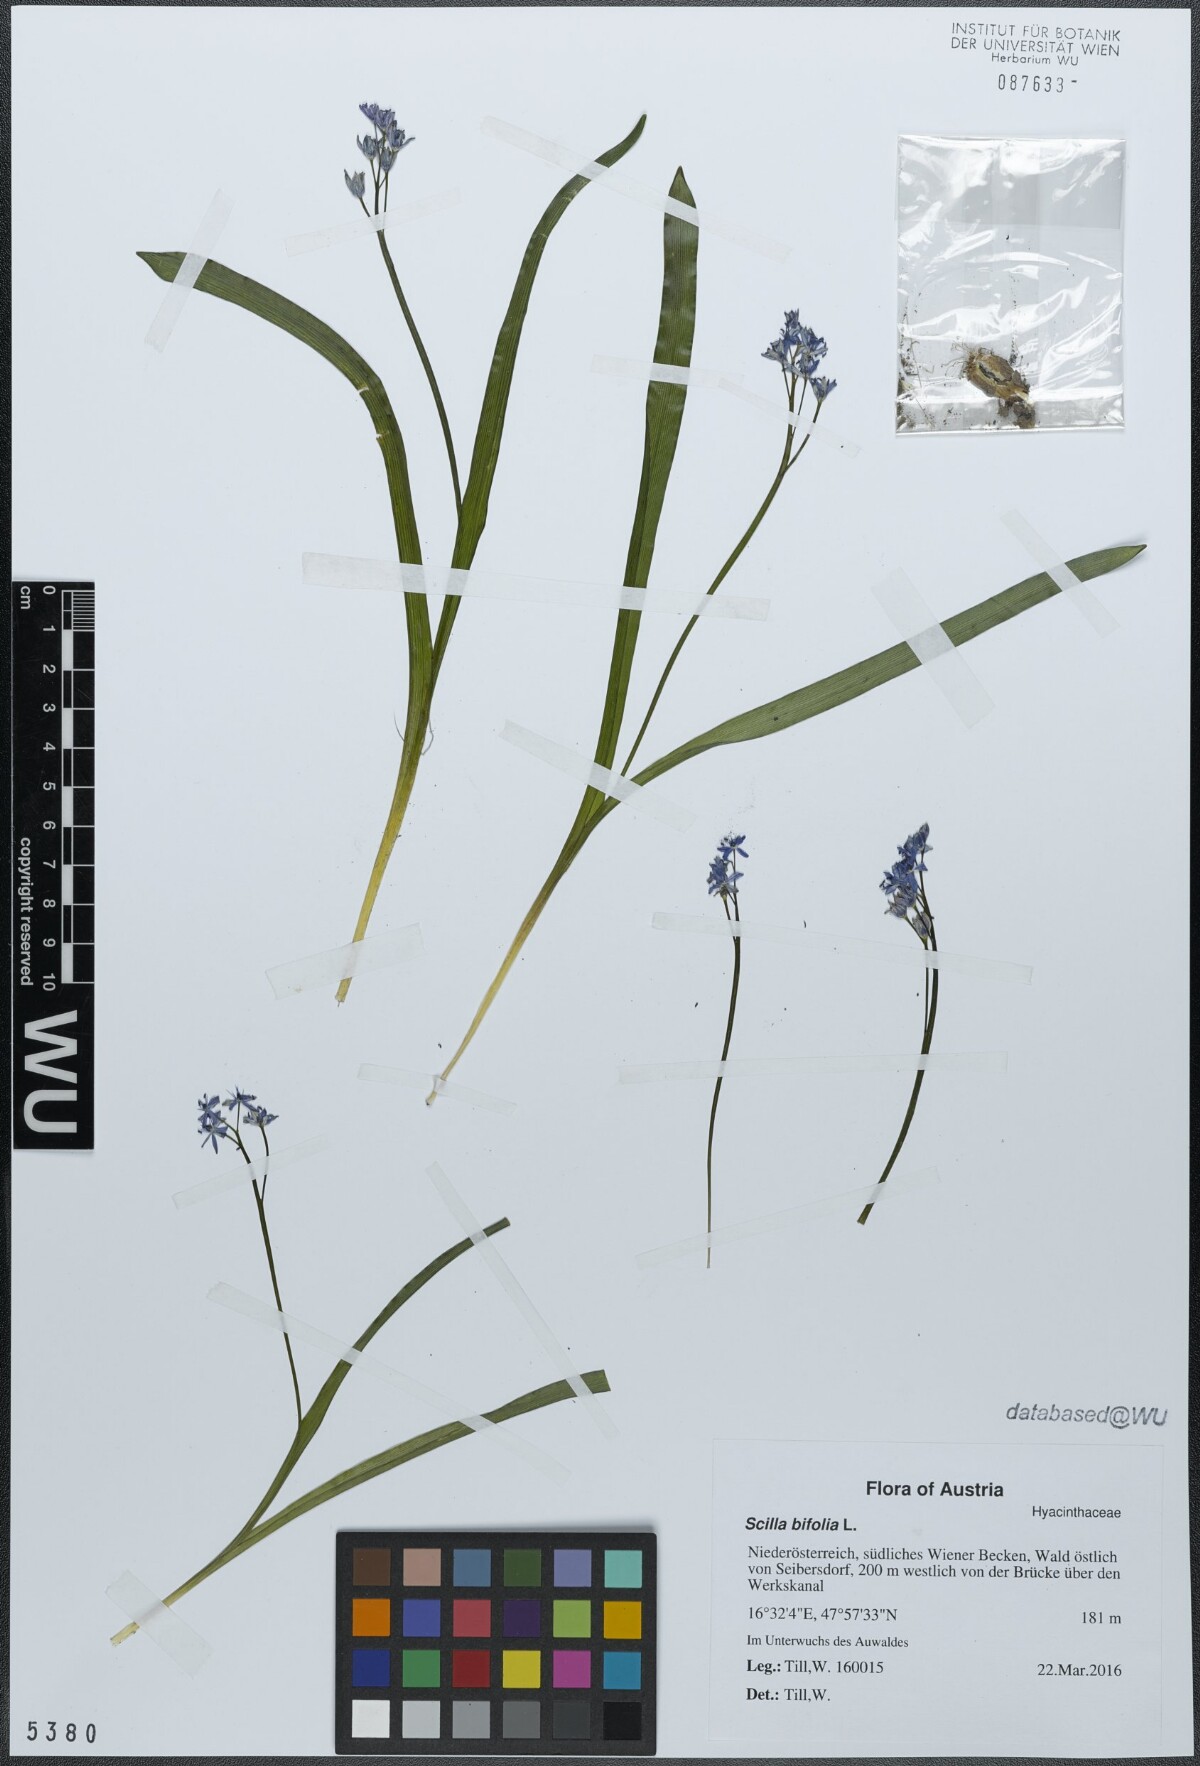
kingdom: Plantae
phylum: Tracheophyta
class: Liliopsida
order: Asparagales
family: Asparagaceae
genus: Scilla
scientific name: Scilla bifolia
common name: Alpine squill
